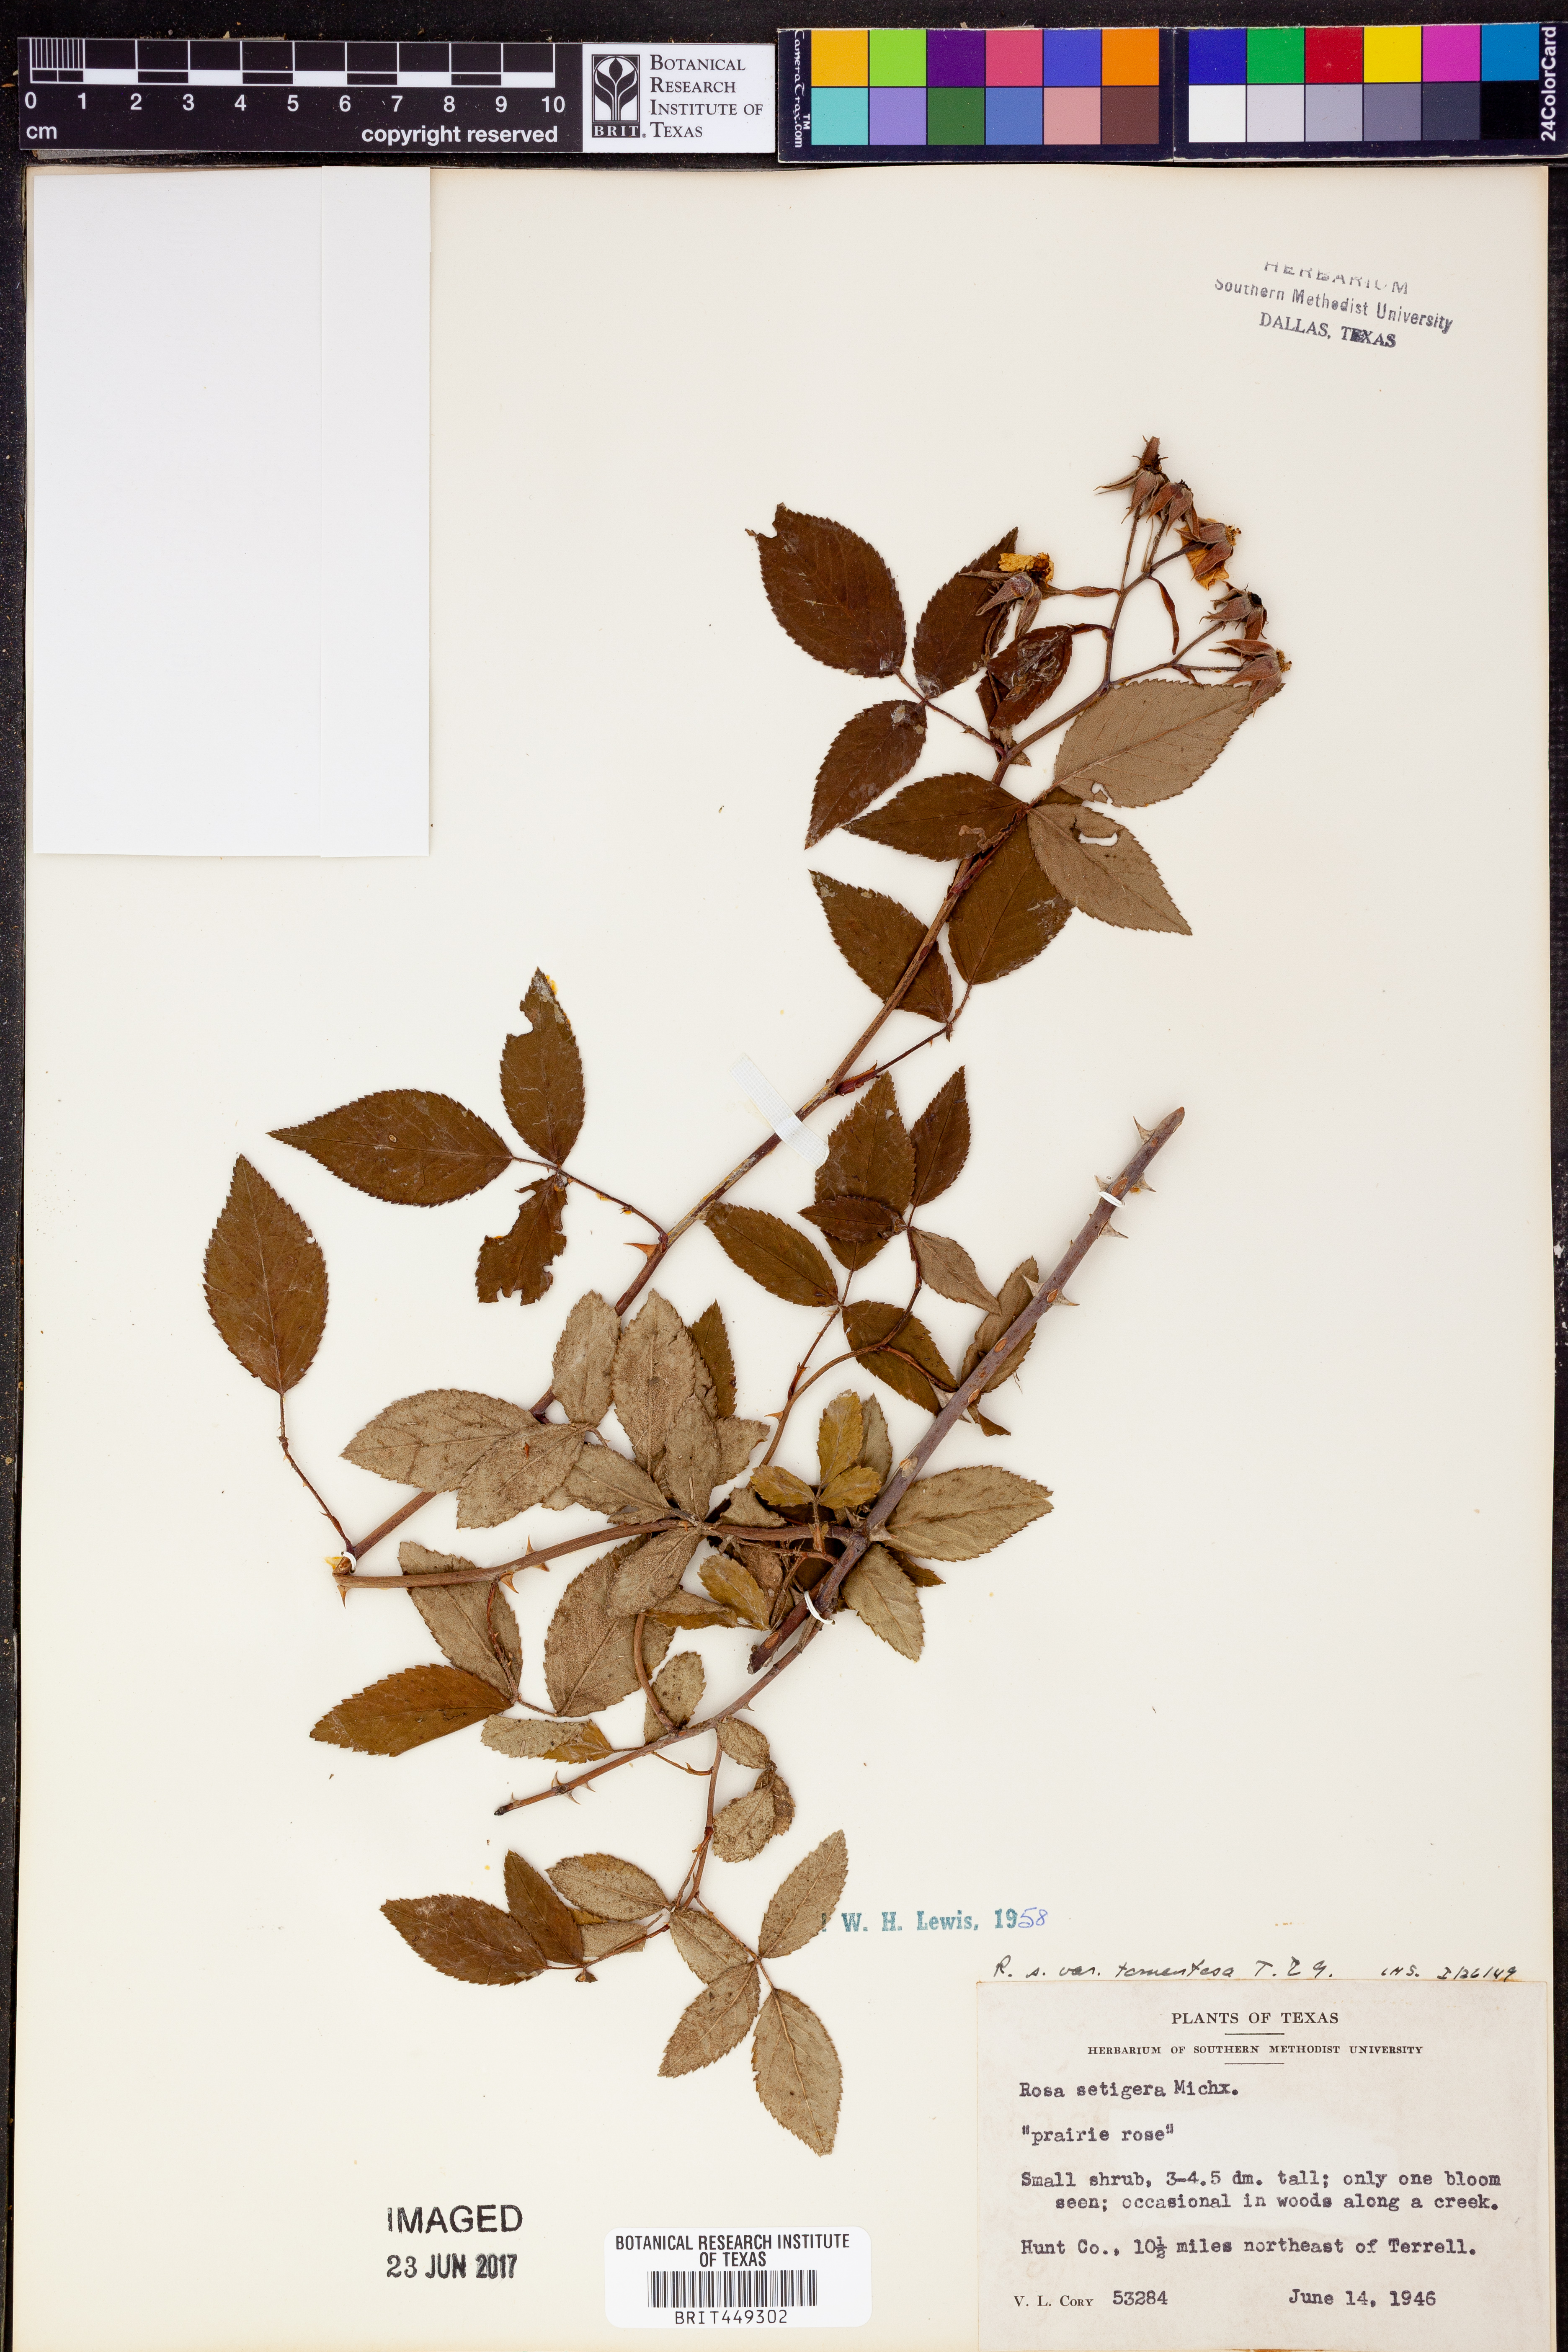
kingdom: Plantae
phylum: Tracheophyta
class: Magnoliopsida
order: Rosales
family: Rosaceae
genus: Rosa
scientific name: Rosa setigera
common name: Prairie rose
